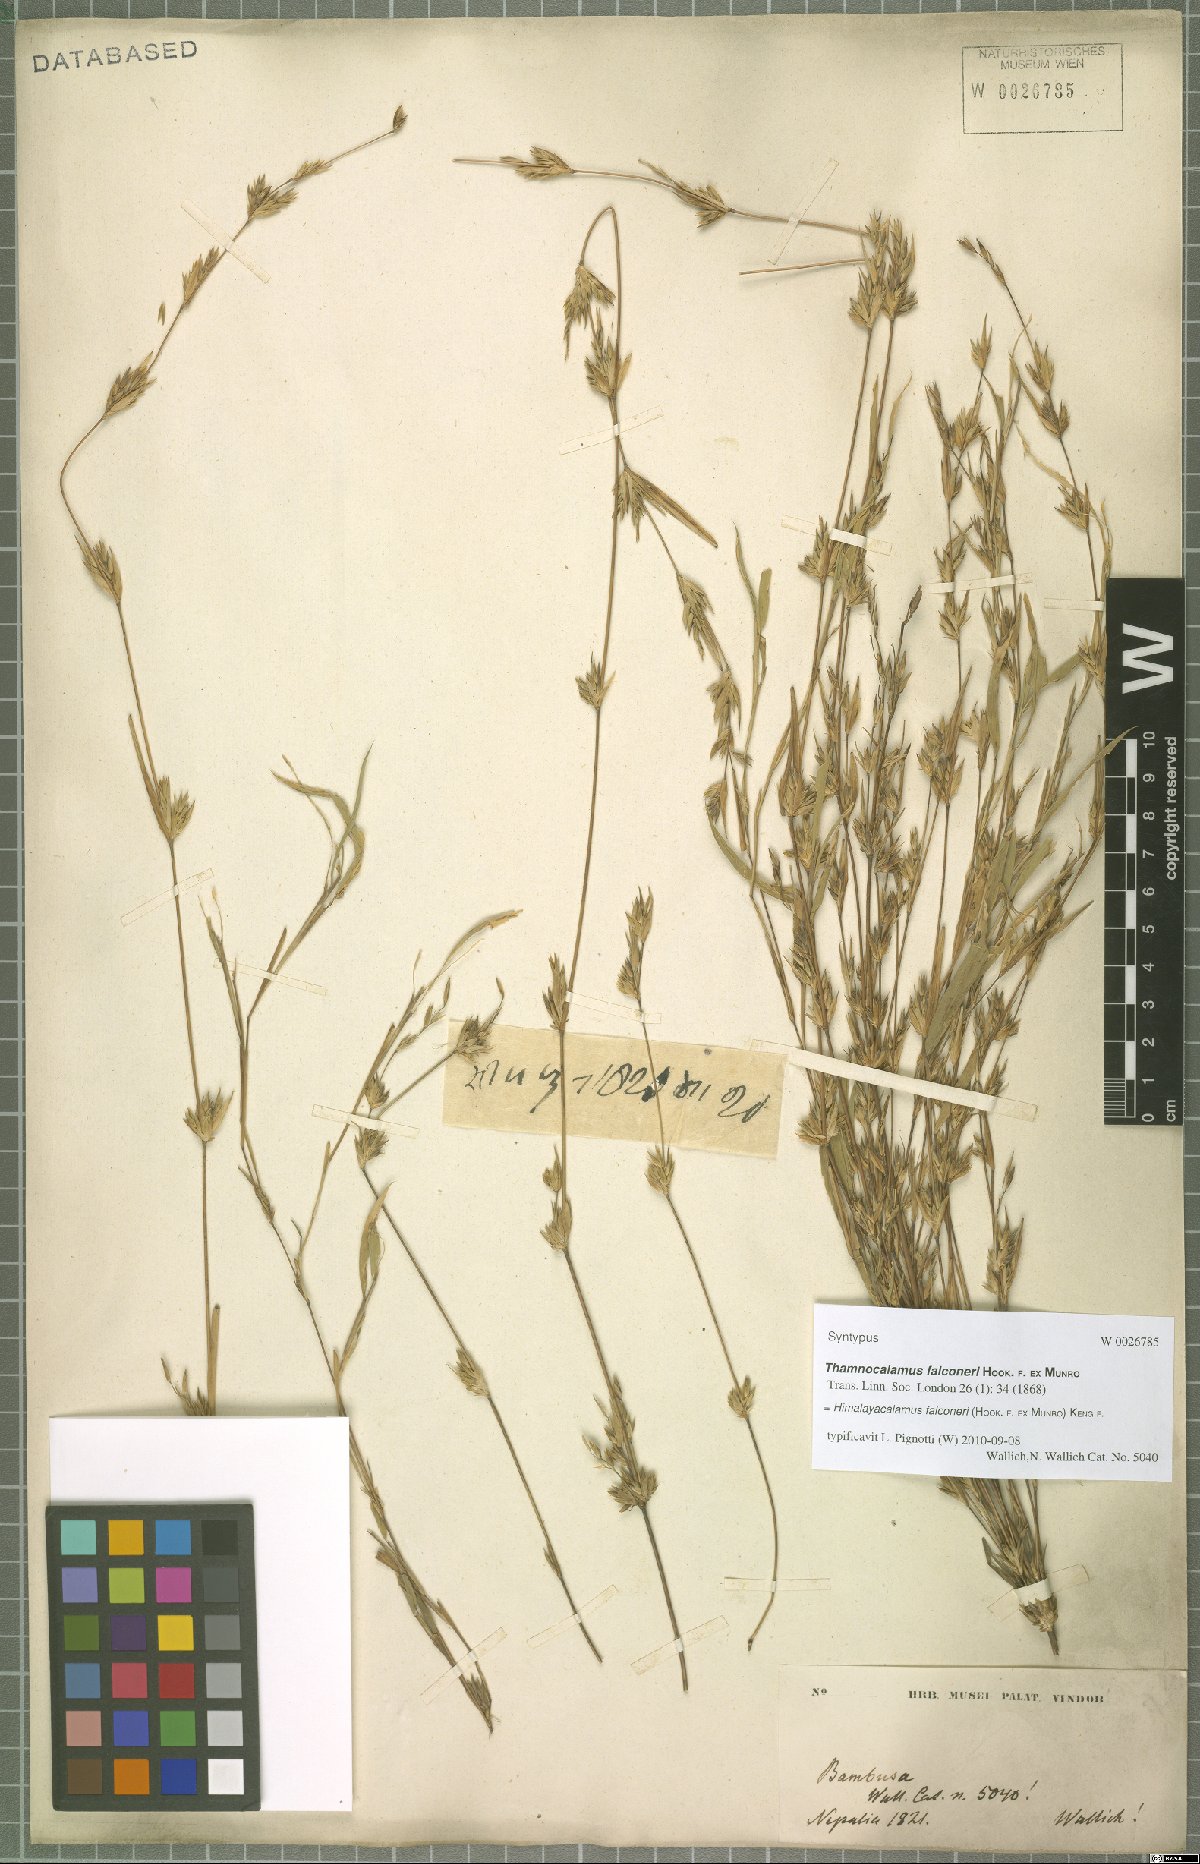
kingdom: Plantae
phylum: Tracheophyta
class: Liliopsida
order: Poales
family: Poaceae
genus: Himalayacalamus
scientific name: Himalayacalamus falconeri
